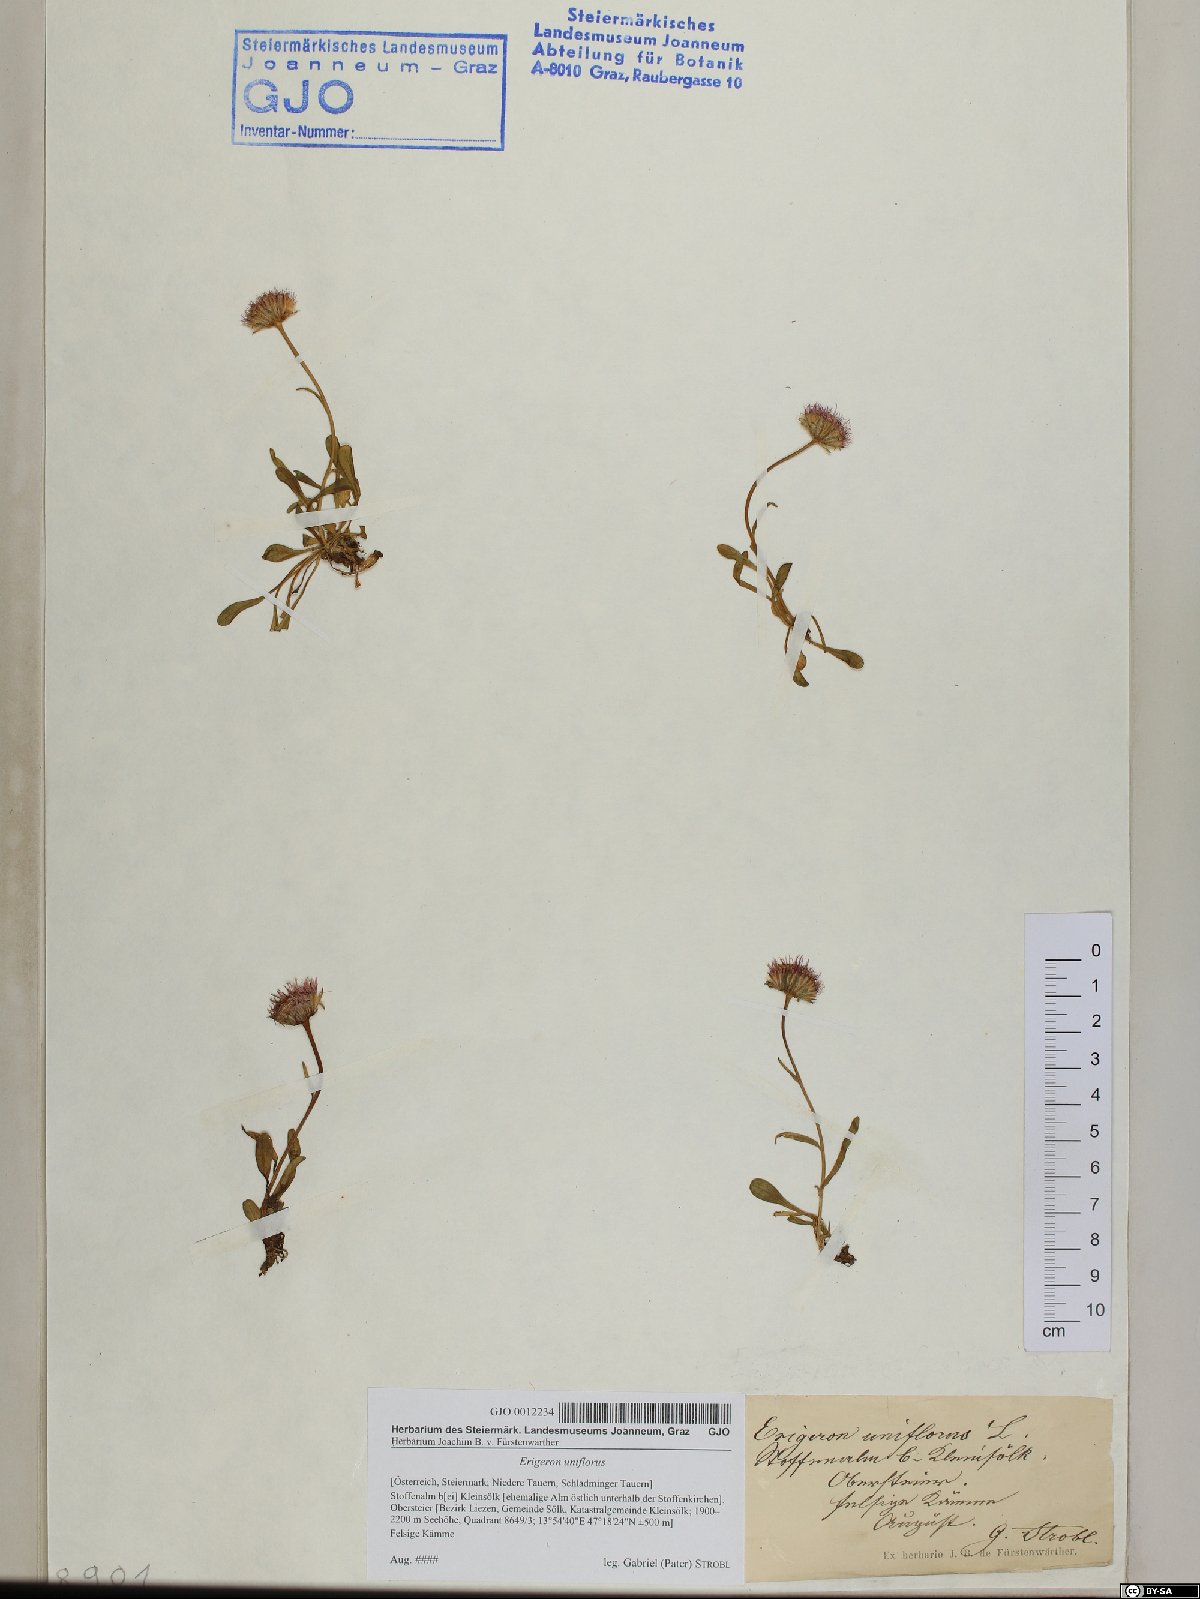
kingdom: Plantae
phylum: Tracheophyta
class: Magnoliopsida
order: Asterales
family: Asteraceae
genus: Erigeron
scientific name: Erigeron uniflorus
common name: Northern daisy
